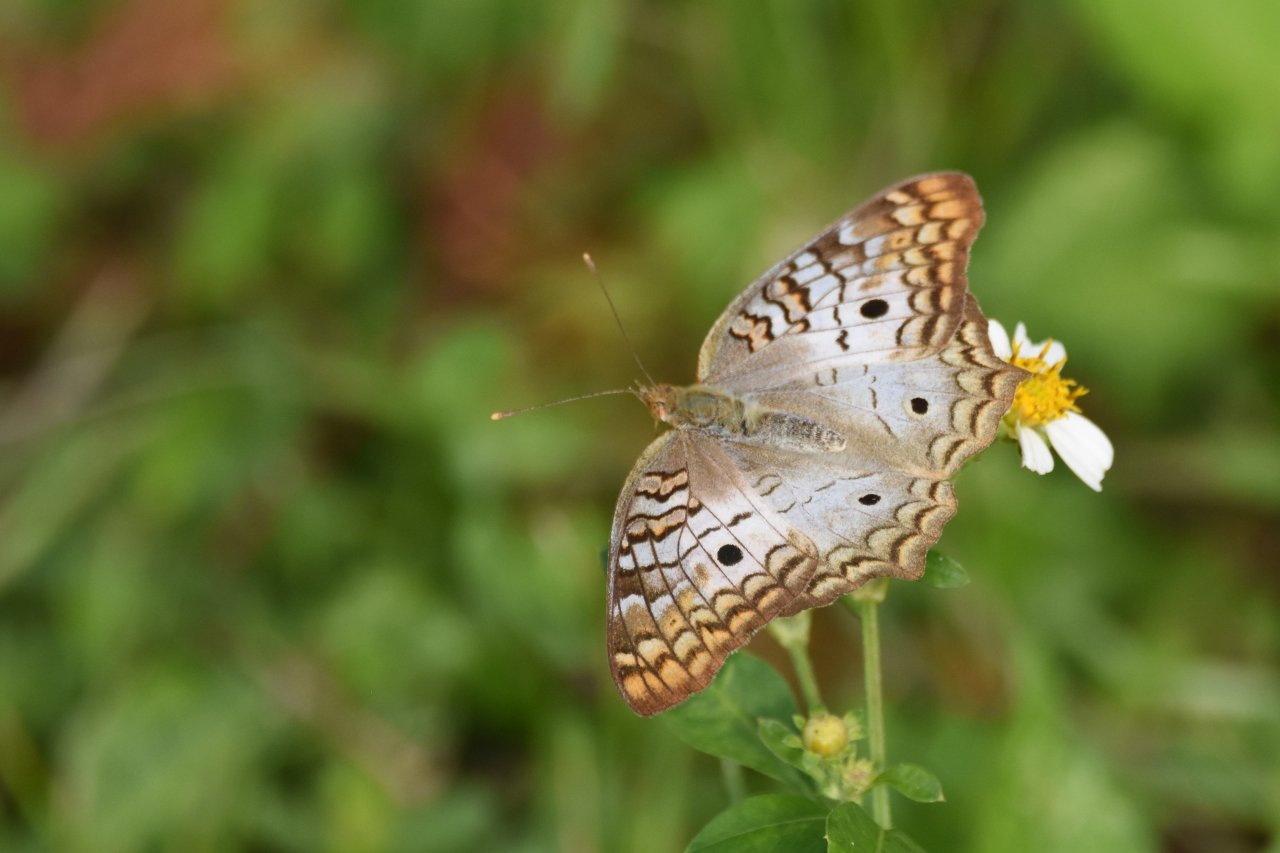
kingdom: Animalia
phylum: Arthropoda
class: Insecta
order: Lepidoptera
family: Nymphalidae
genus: Anartia
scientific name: Anartia jatrophae
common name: White Peacock
